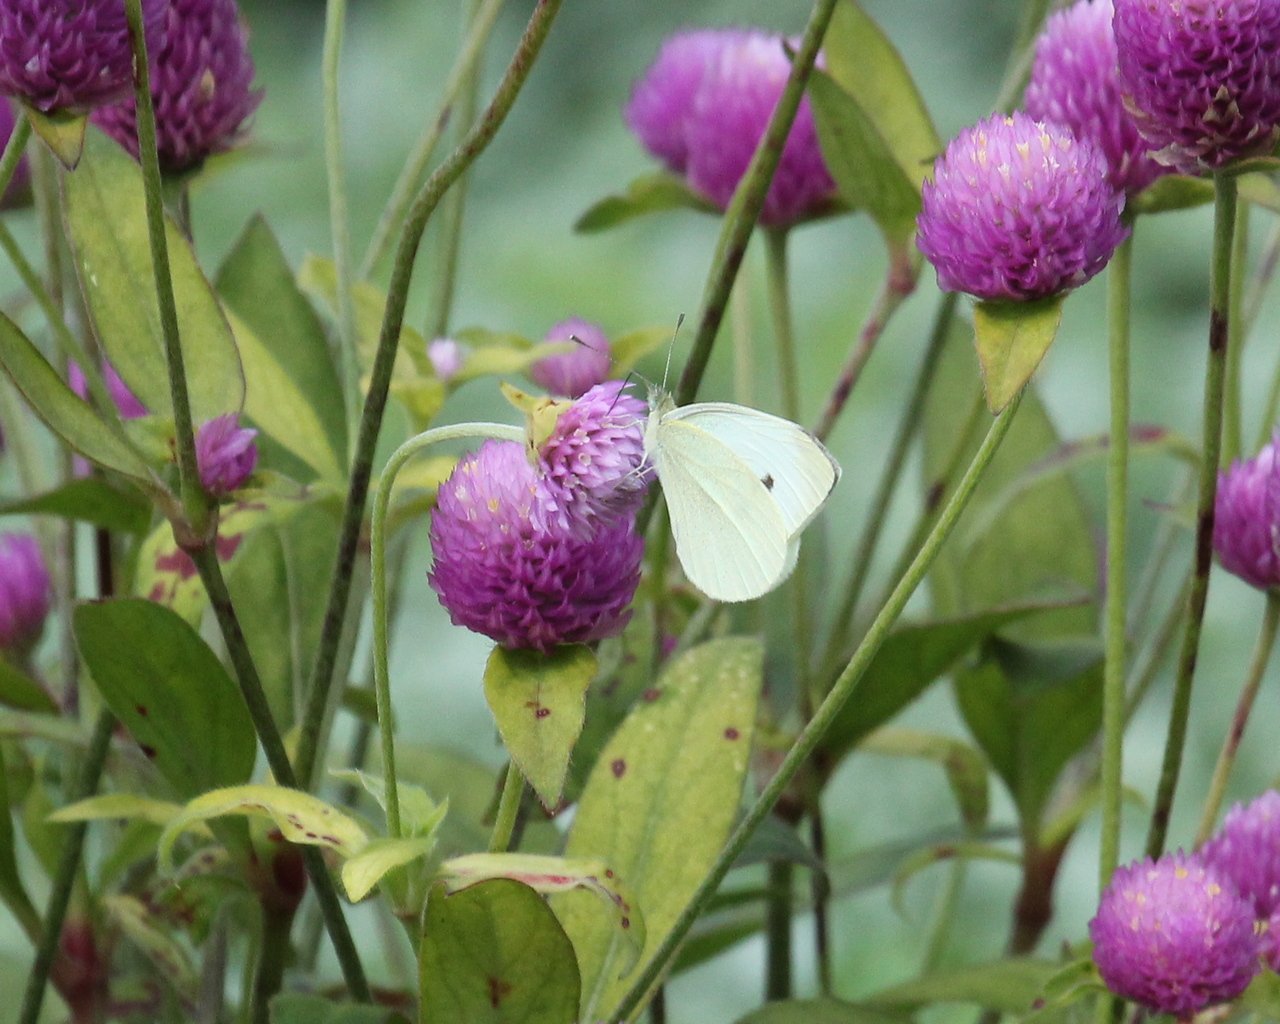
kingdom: Animalia
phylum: Arthropoda
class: Insecta
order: Lepidoptera
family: Pieridae
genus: Pieris
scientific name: Pieris rapae
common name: Cabbage White
